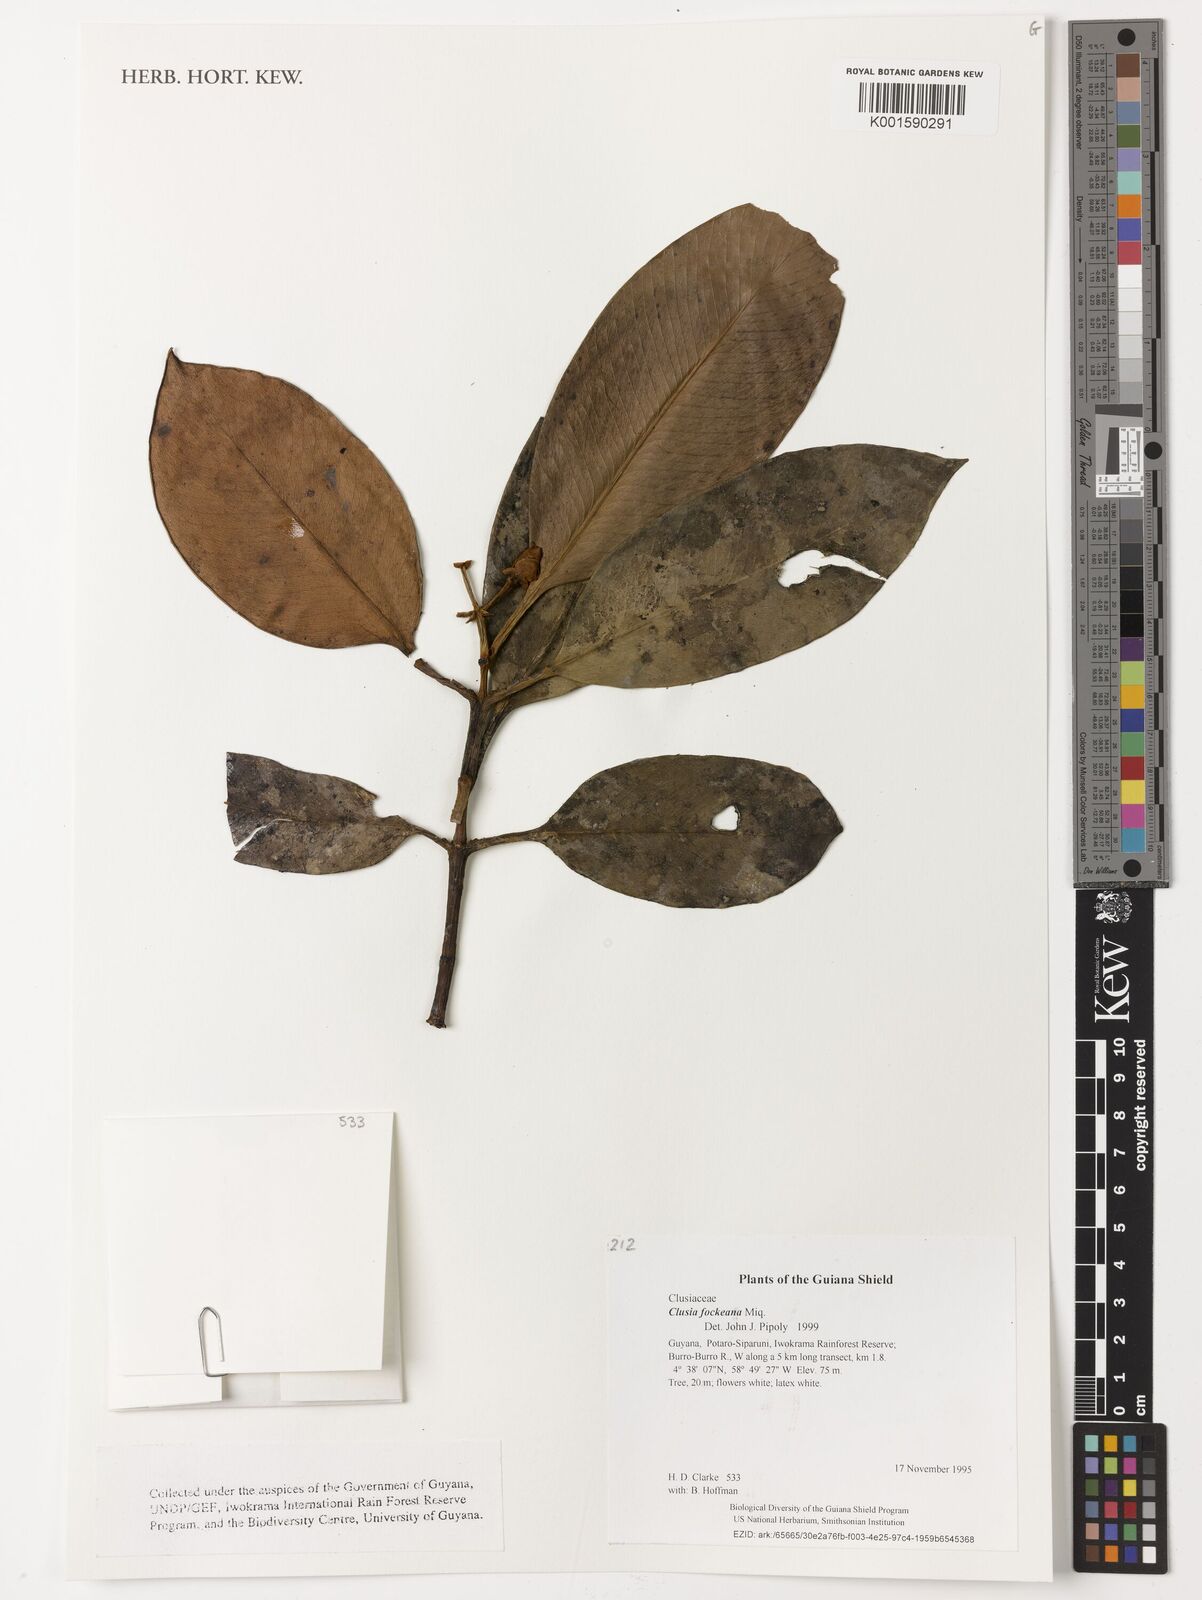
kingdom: Plantae
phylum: Tracheophyta
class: Magnoliopsida
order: Malpighiales
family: Clusiaceae
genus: Clusia
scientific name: Clusia fockeana
